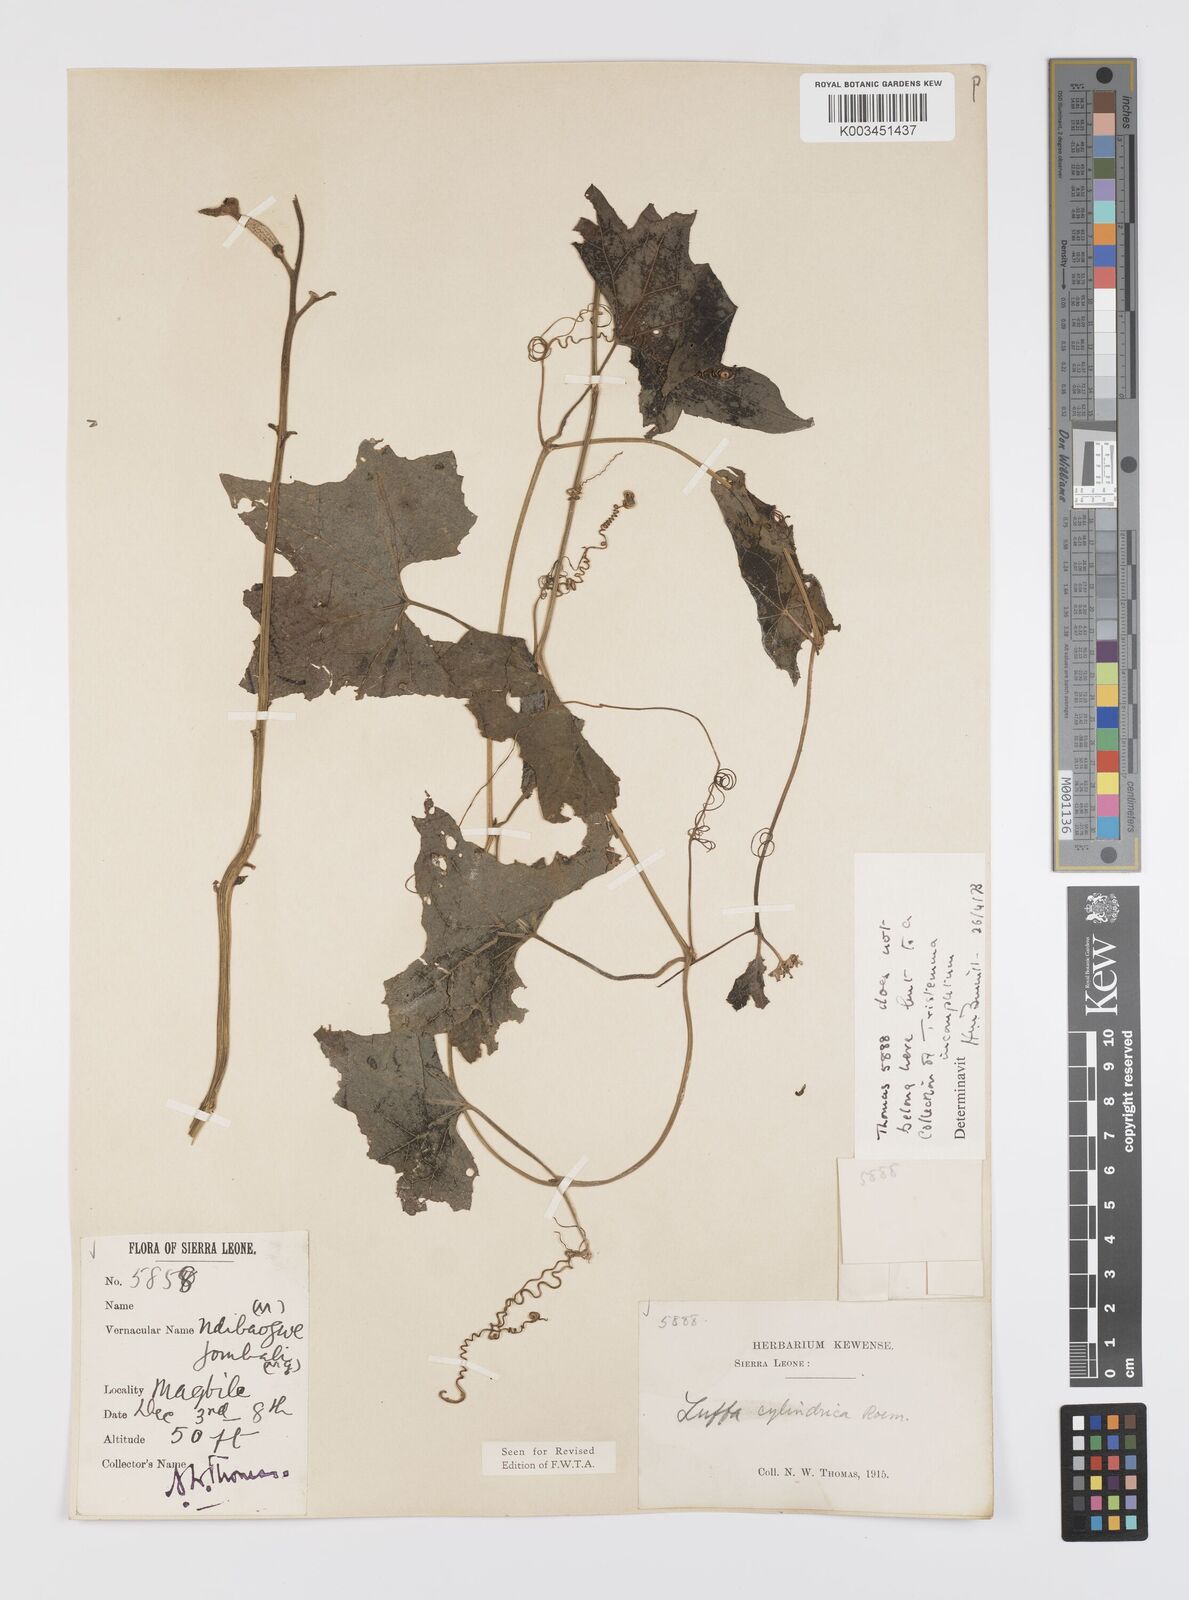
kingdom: Plantae
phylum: Tracheophyta
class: Magnoliopsida
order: Cucurbitales
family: Cucurbitaceae
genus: Luffa
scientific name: Luffa aegyptiaca
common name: Sponge gourd
